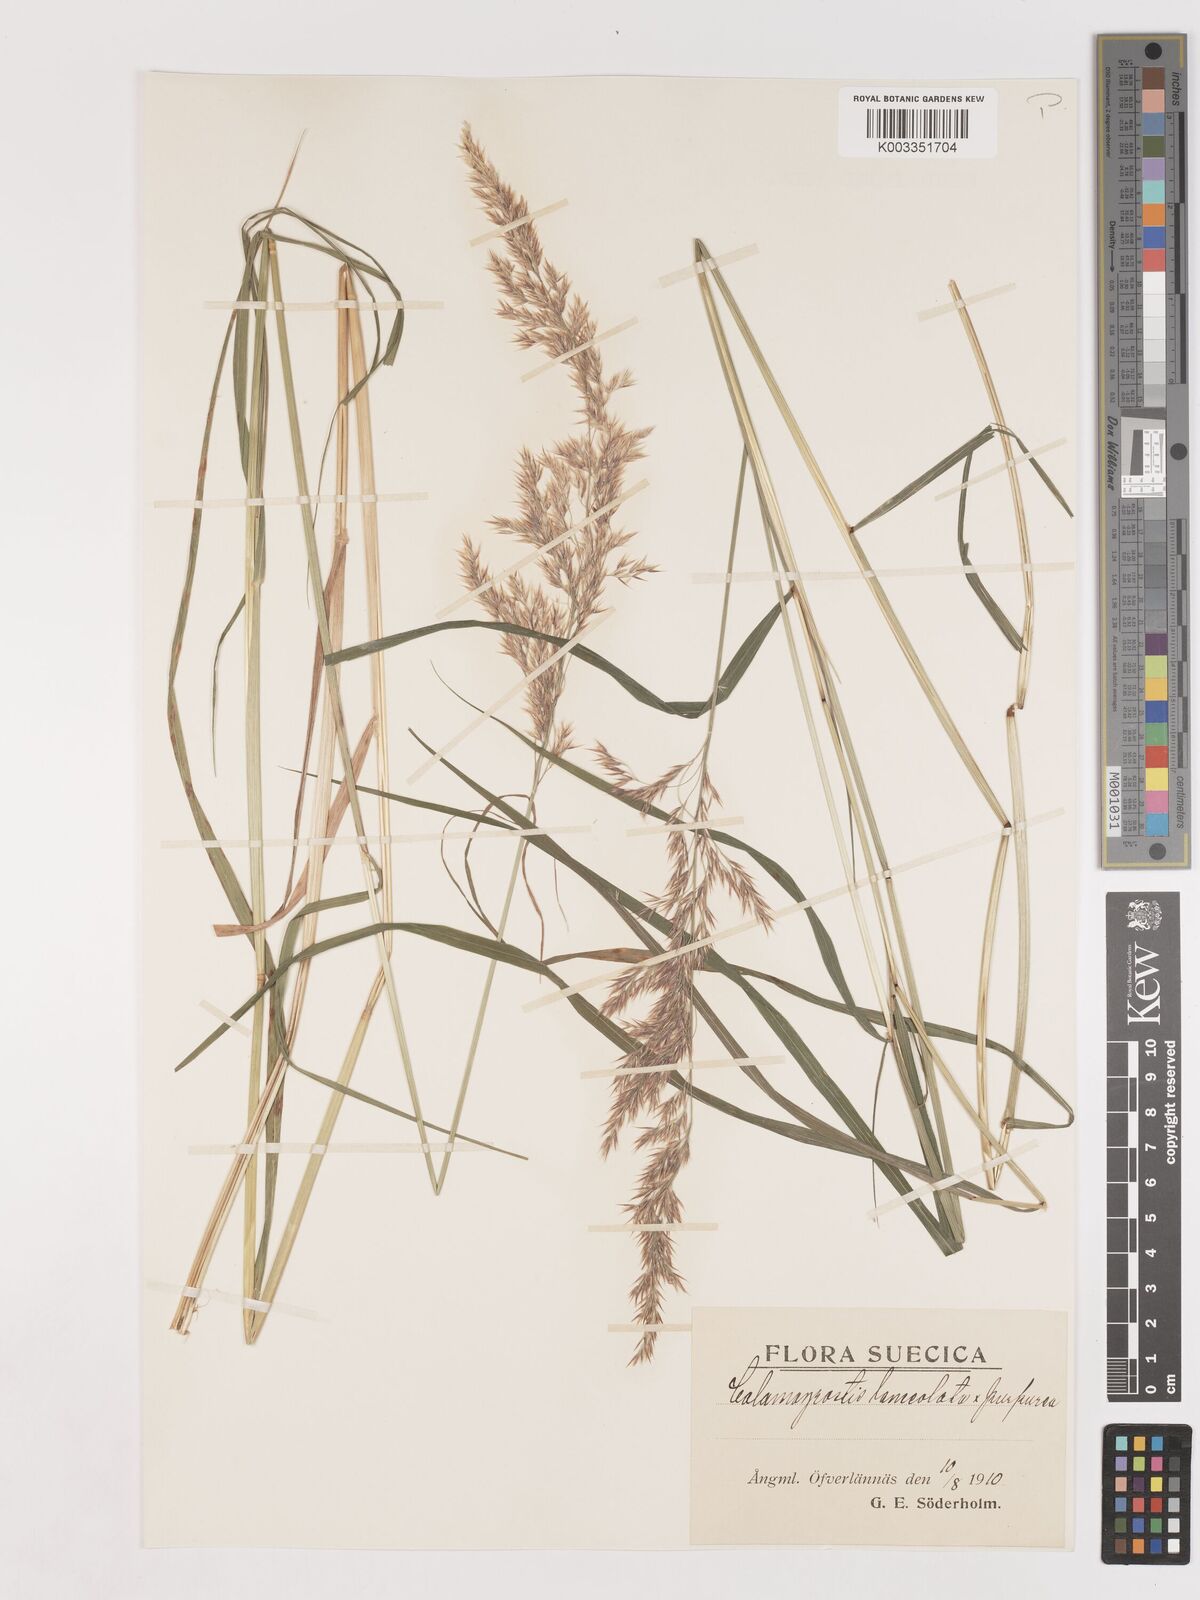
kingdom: Plantae
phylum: Tracheophyta
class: Liliopsida
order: Poales
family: Poaceae
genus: Calamagrostis
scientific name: Calamagrostis canescens
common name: Purple small-reed
